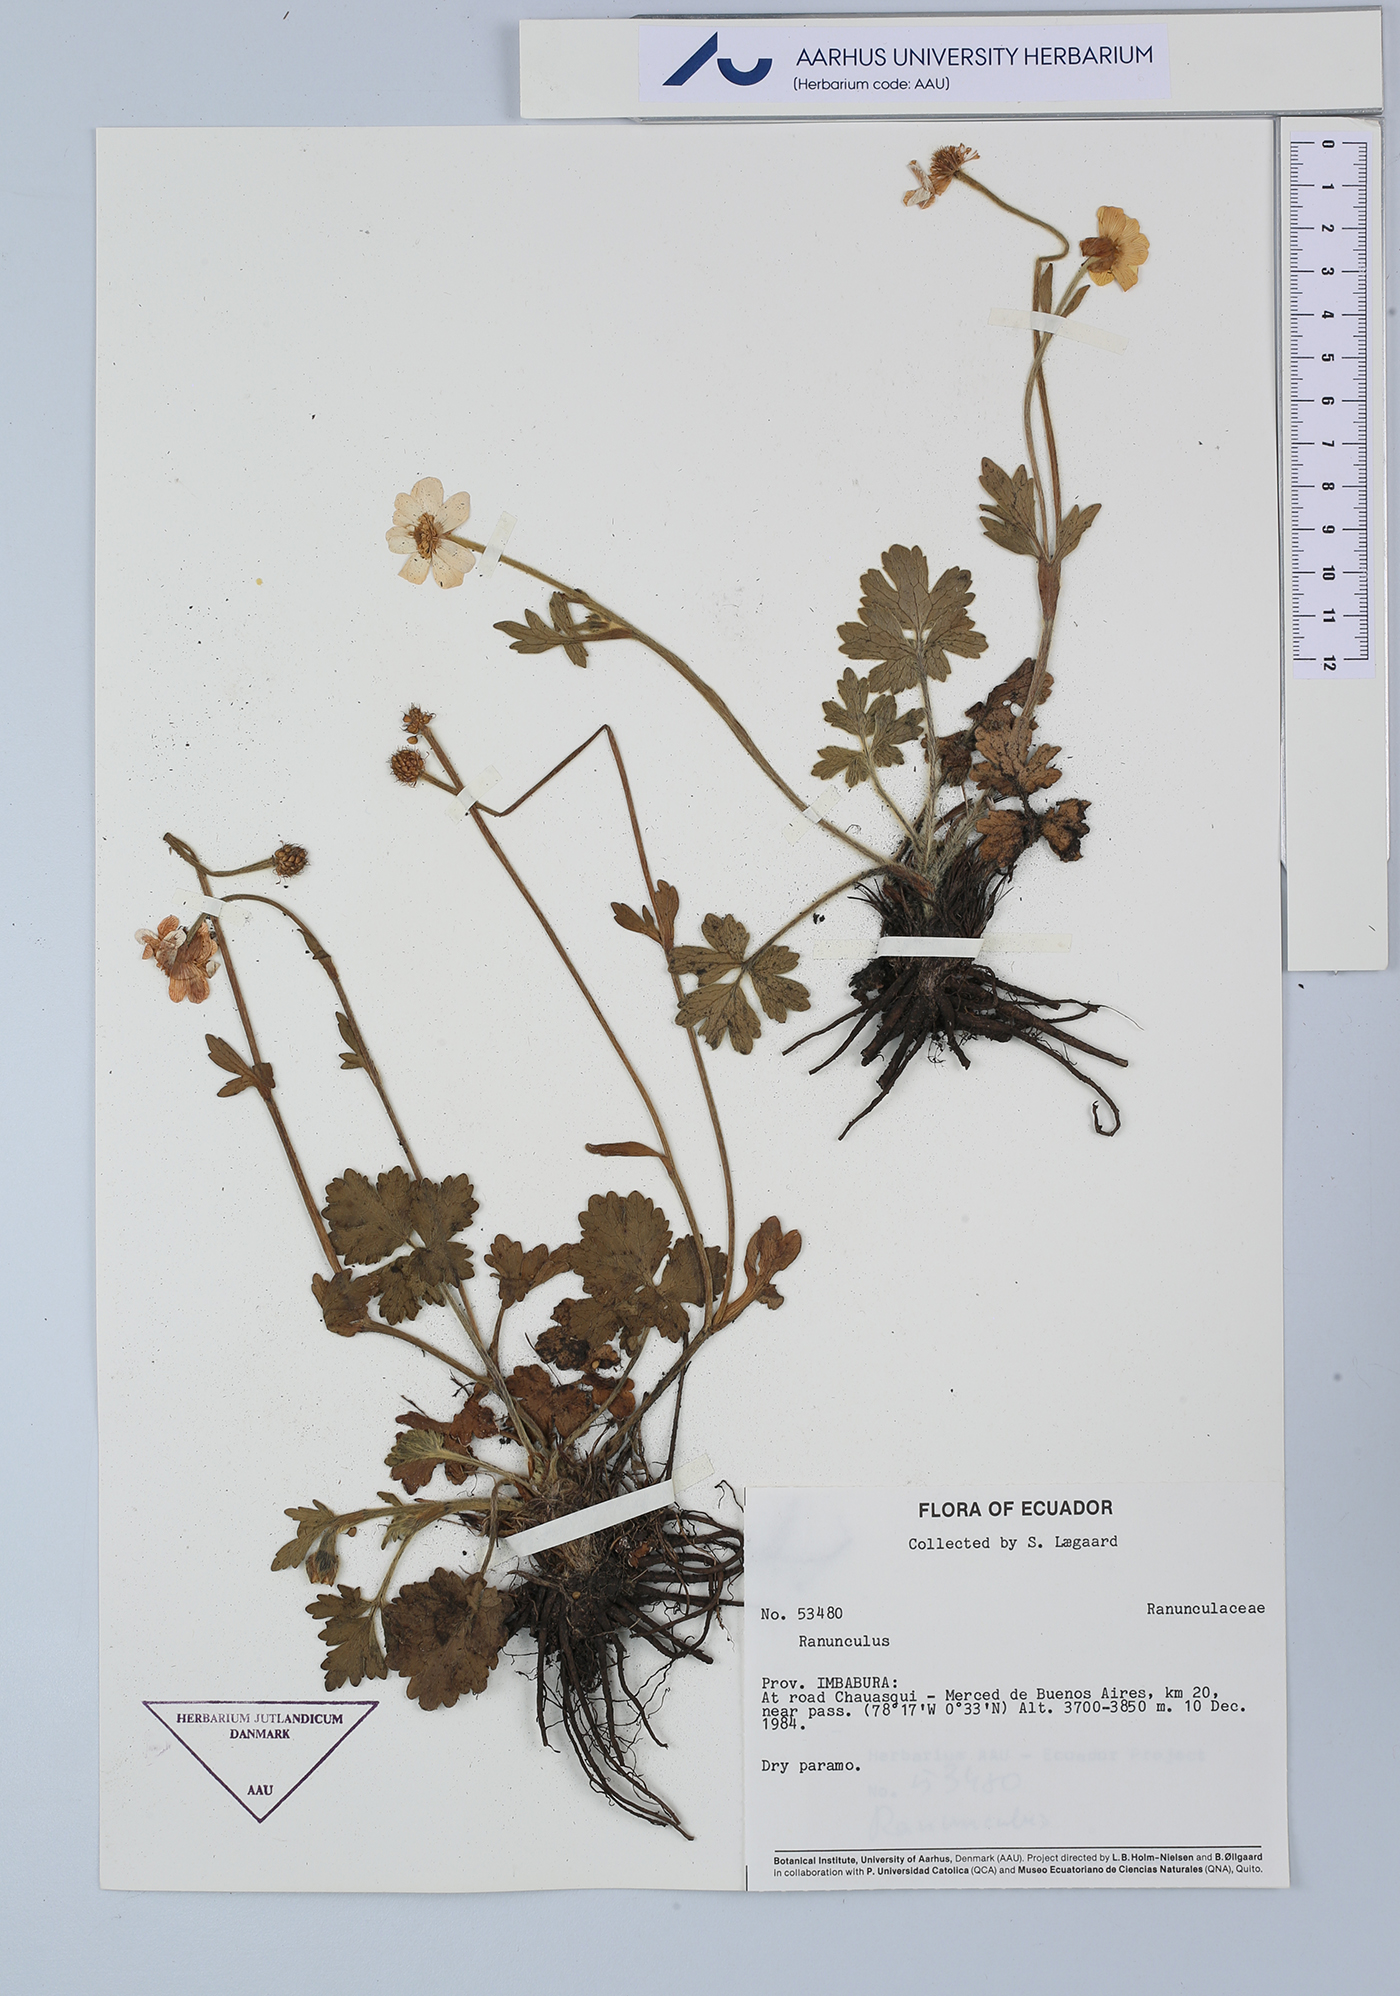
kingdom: Plantae
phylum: Tracheophyta
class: Magnoliopsida
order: Ranunculales
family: Ranunculaceae
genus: Ranunculus
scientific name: Ranunculus
